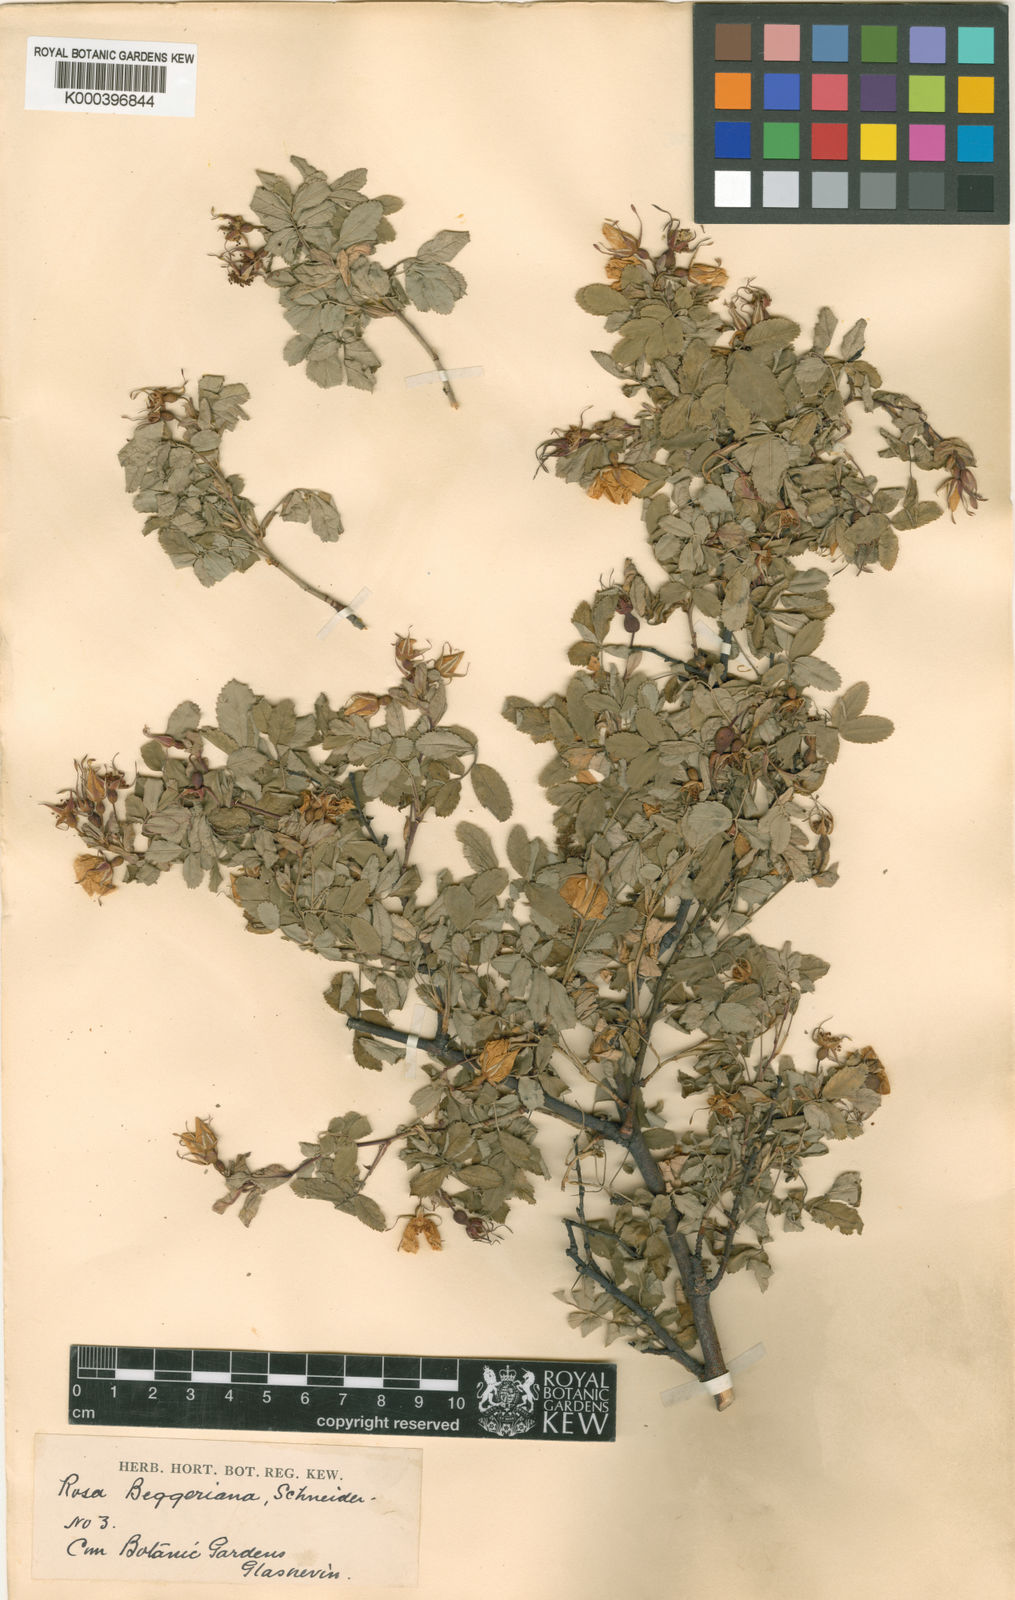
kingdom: Plantae
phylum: Tracheophyta
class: Magnoliopsida
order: Rosales
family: Rosaceae
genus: Rosa
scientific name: Rosa beggeriana
